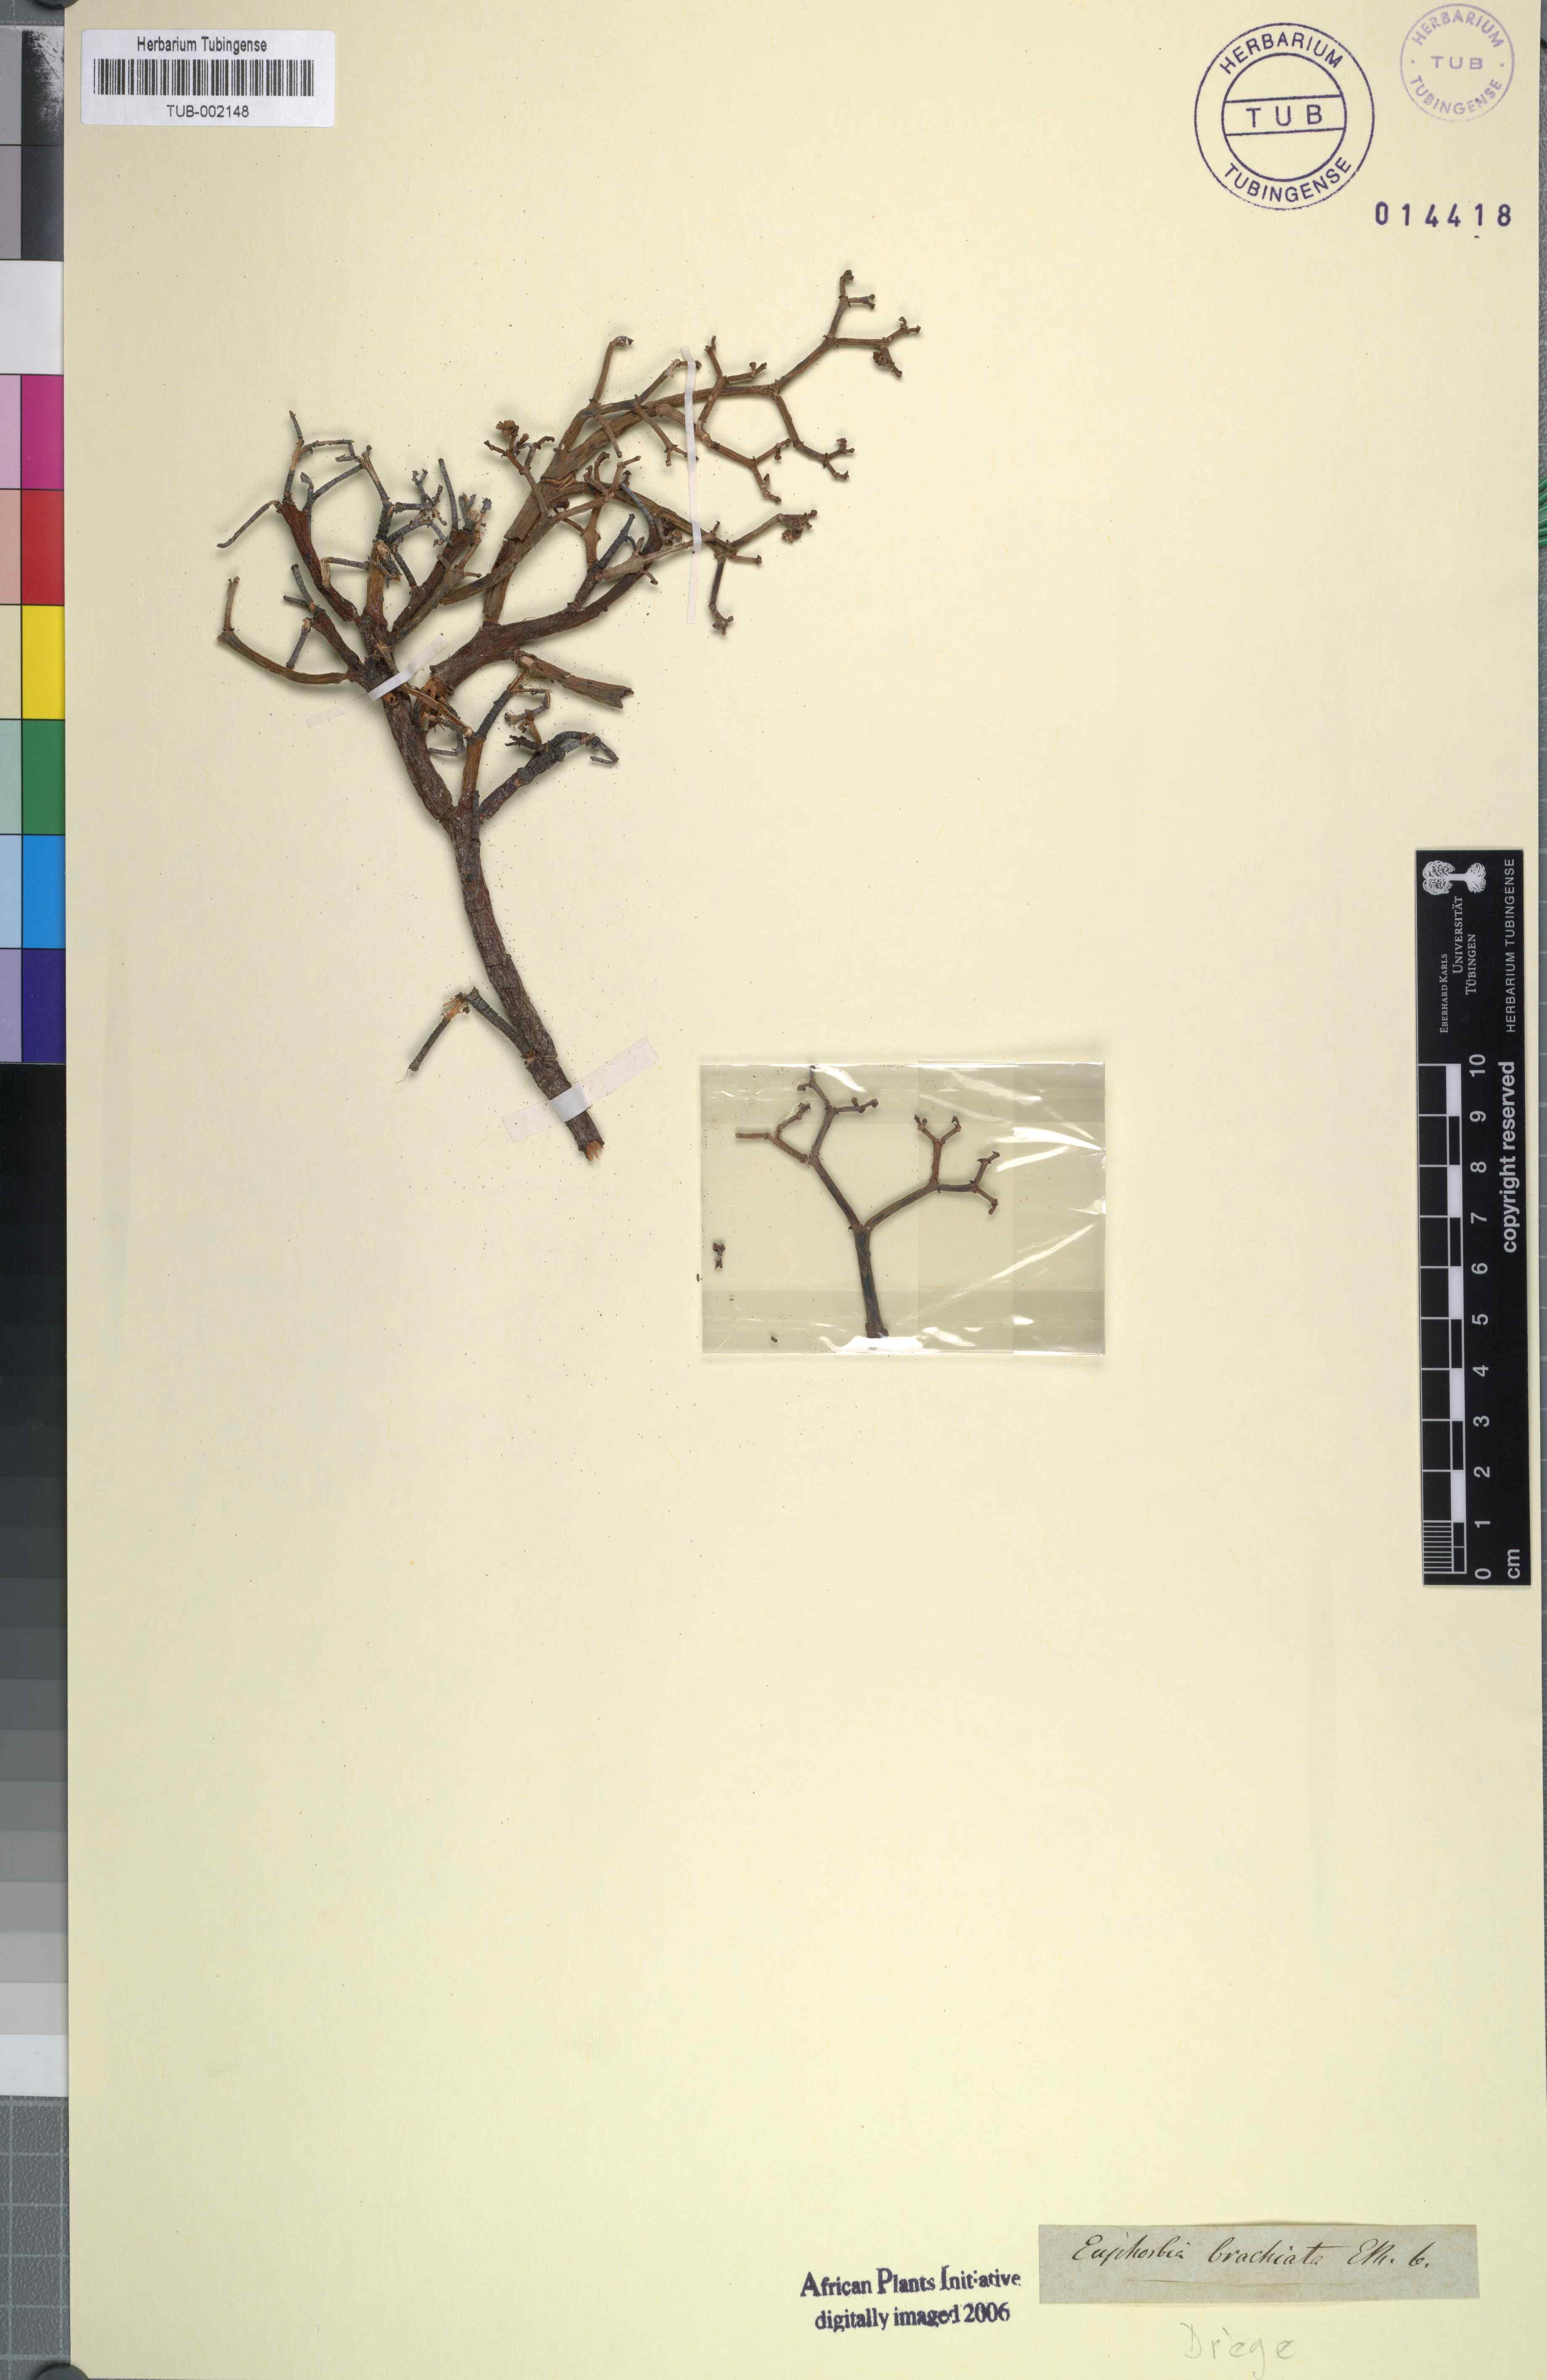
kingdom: Plantae
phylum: Tracheophyta
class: Magnoliopsida
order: Malpighiales
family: Euphorbiaceae
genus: Euphorbia
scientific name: Euphorbia brachiata
